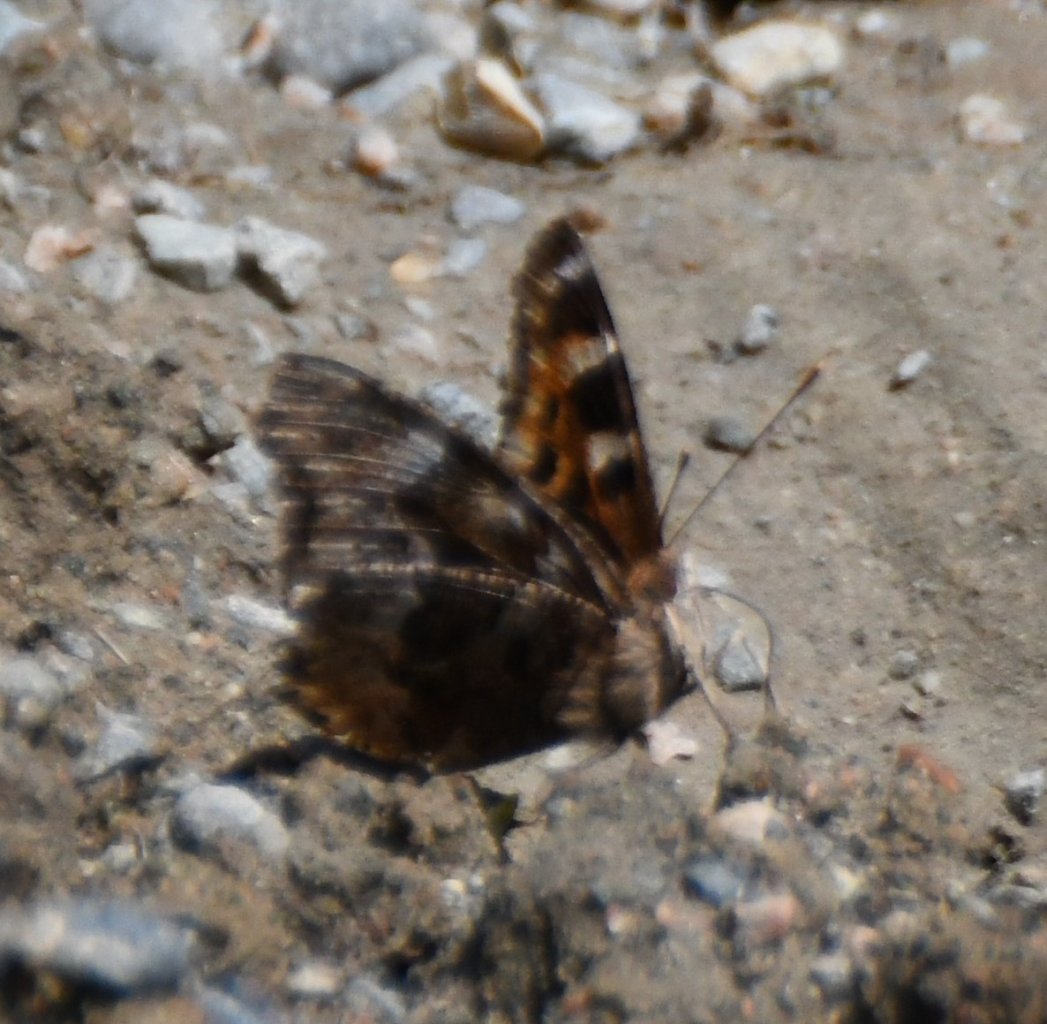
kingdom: Animalia
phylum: Arthropoda
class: Insecta
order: Lepidoptera
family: Nymphalidae
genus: Polygonia
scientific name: Polygonia vaualbum
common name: Compton Tortoiseshell
